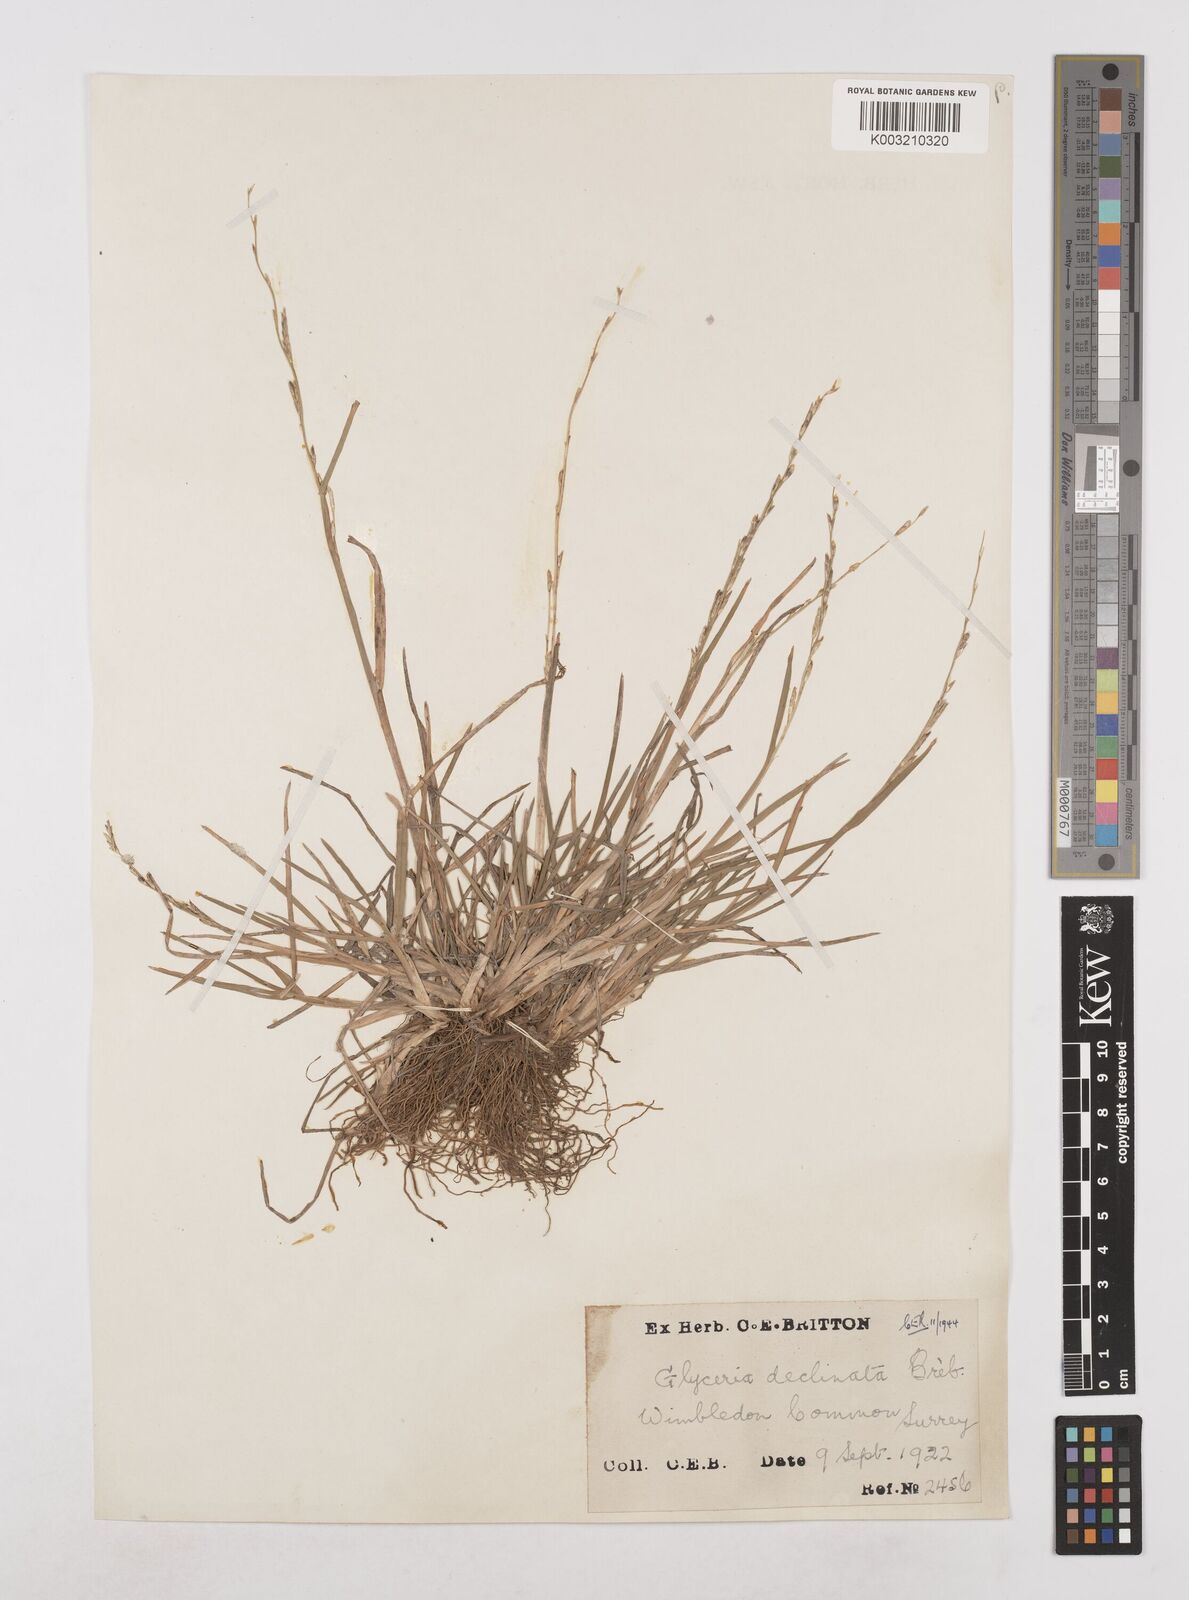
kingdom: Plantae
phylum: Tracheophyta
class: Liliopsida
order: Poales
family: Poaceae
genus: Glyceria
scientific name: Glyceria declinata
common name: Small sweet-grass
